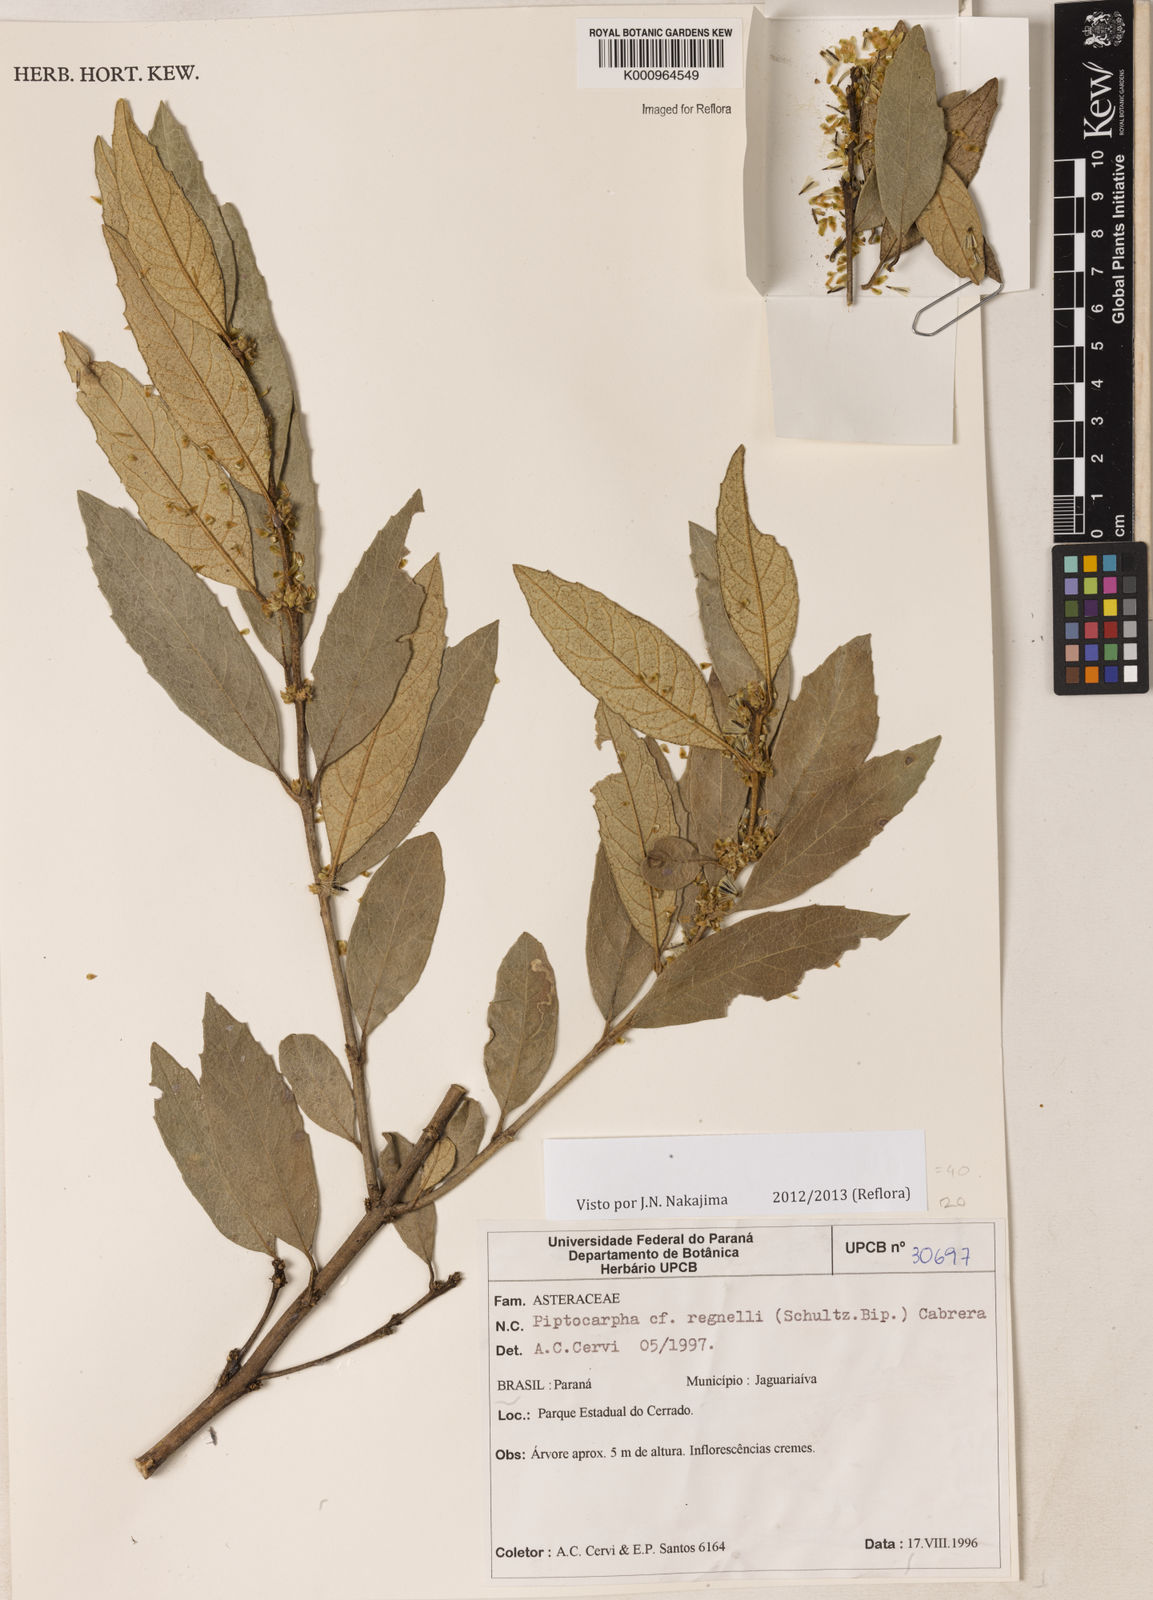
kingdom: Plantae
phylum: Tracheophyta
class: Magnoliopsida
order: Asterales
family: Asteraceae
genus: Piptocarpha
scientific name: Piptocarpha regnellii
